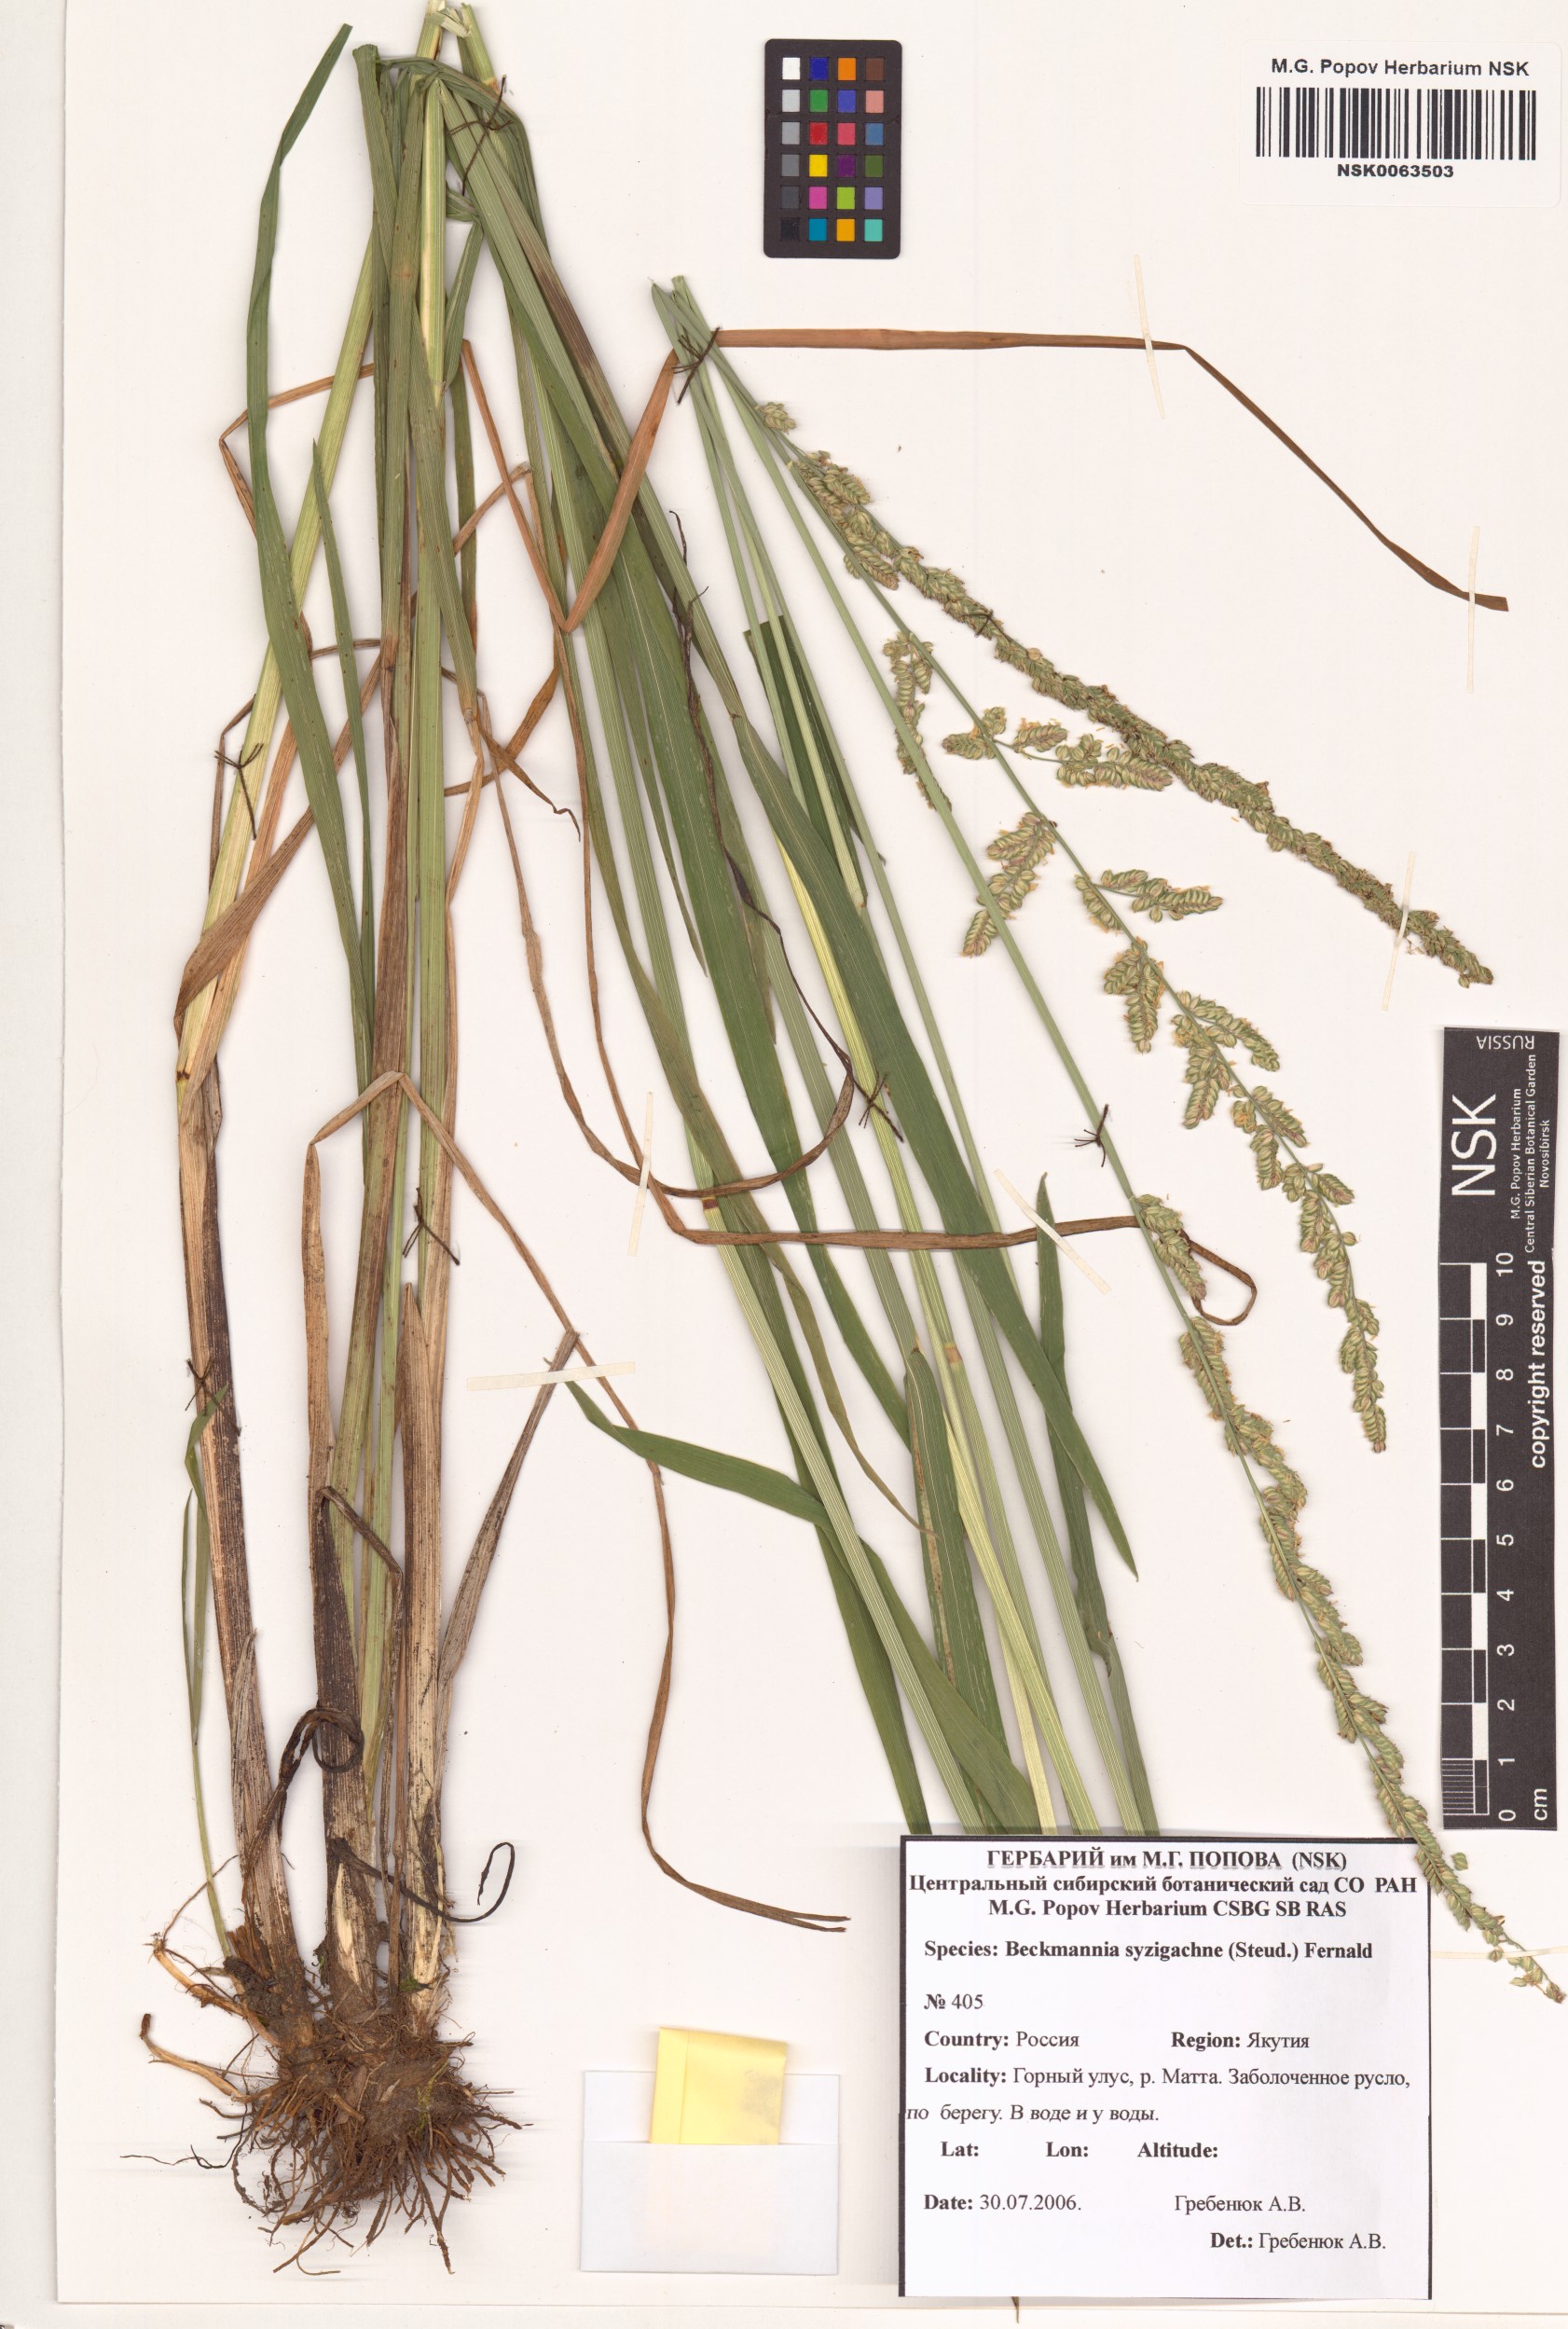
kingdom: Plantae
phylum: Tracheophyta
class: Liliopsida
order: Poales
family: Poaceae
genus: Beckmannia
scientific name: Beckmannia syzigachne
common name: American slough-grass
